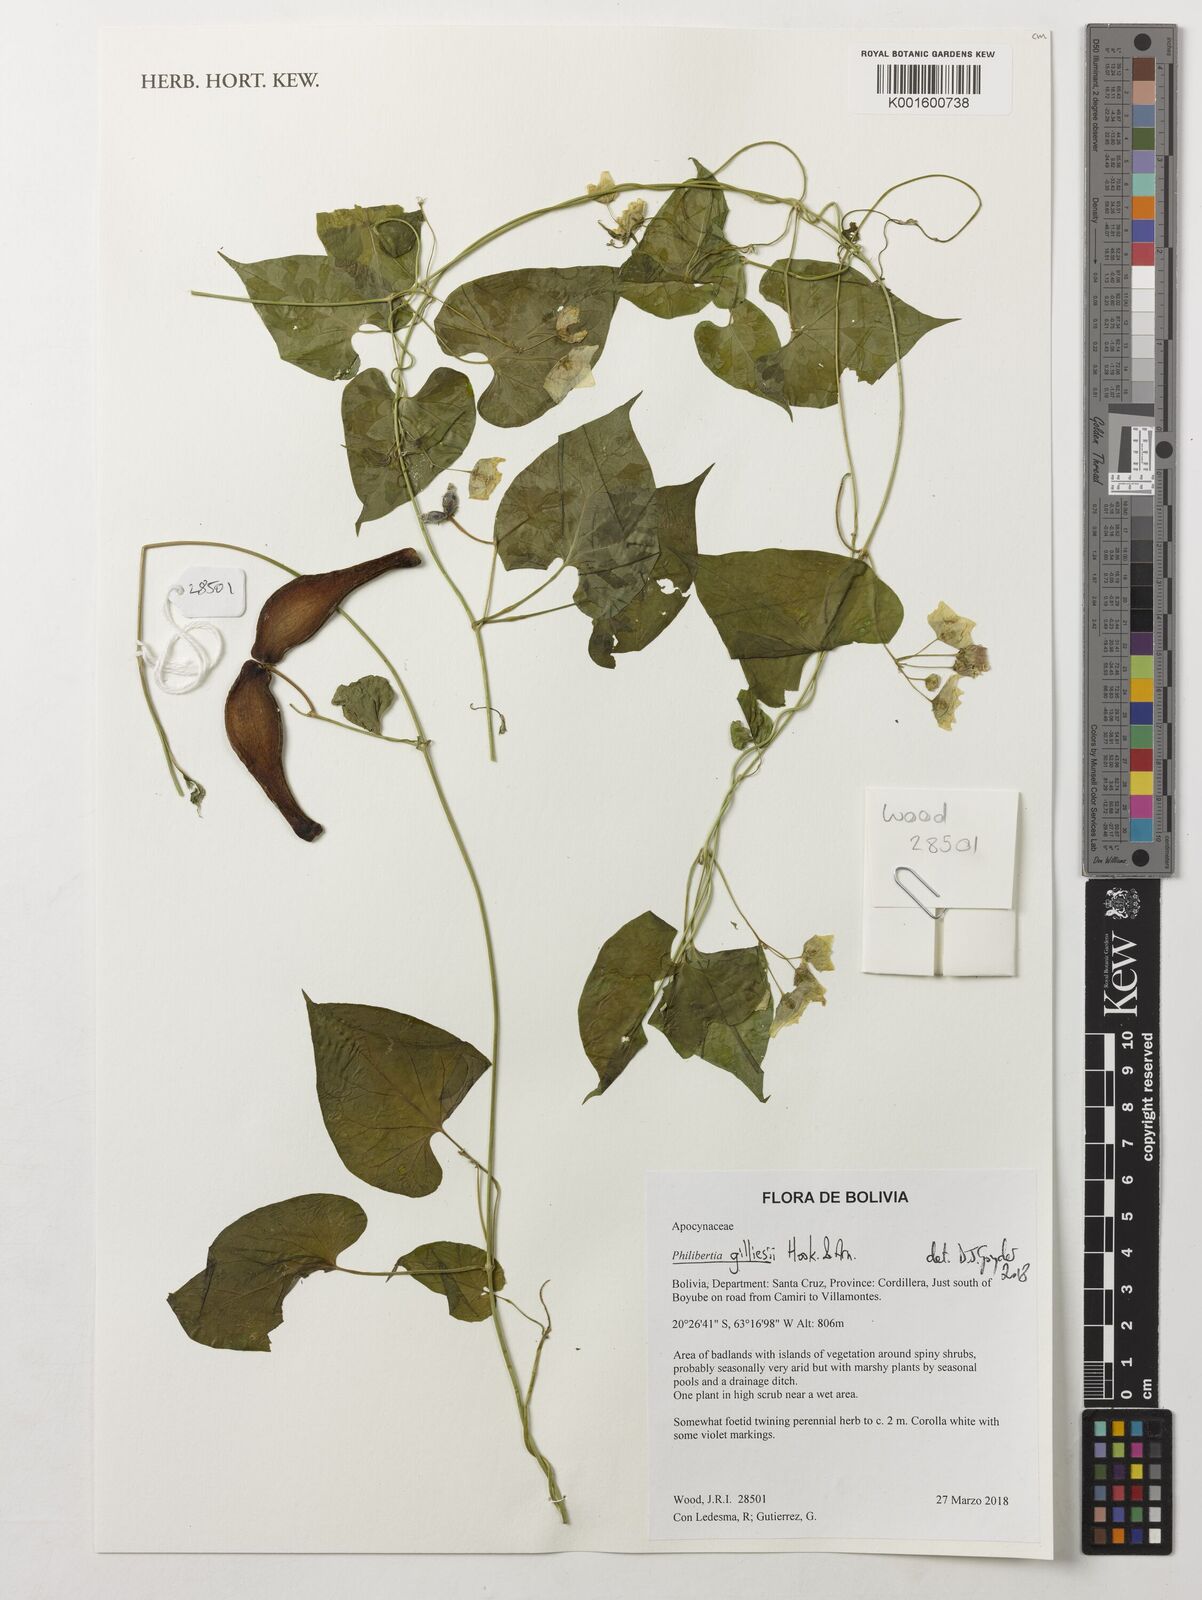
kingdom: Plantae
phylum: Tracheophyta
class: Magnoliopsida
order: Gentianales
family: Apocynaceae
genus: Philibertia
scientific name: Philibertia gilliesii
